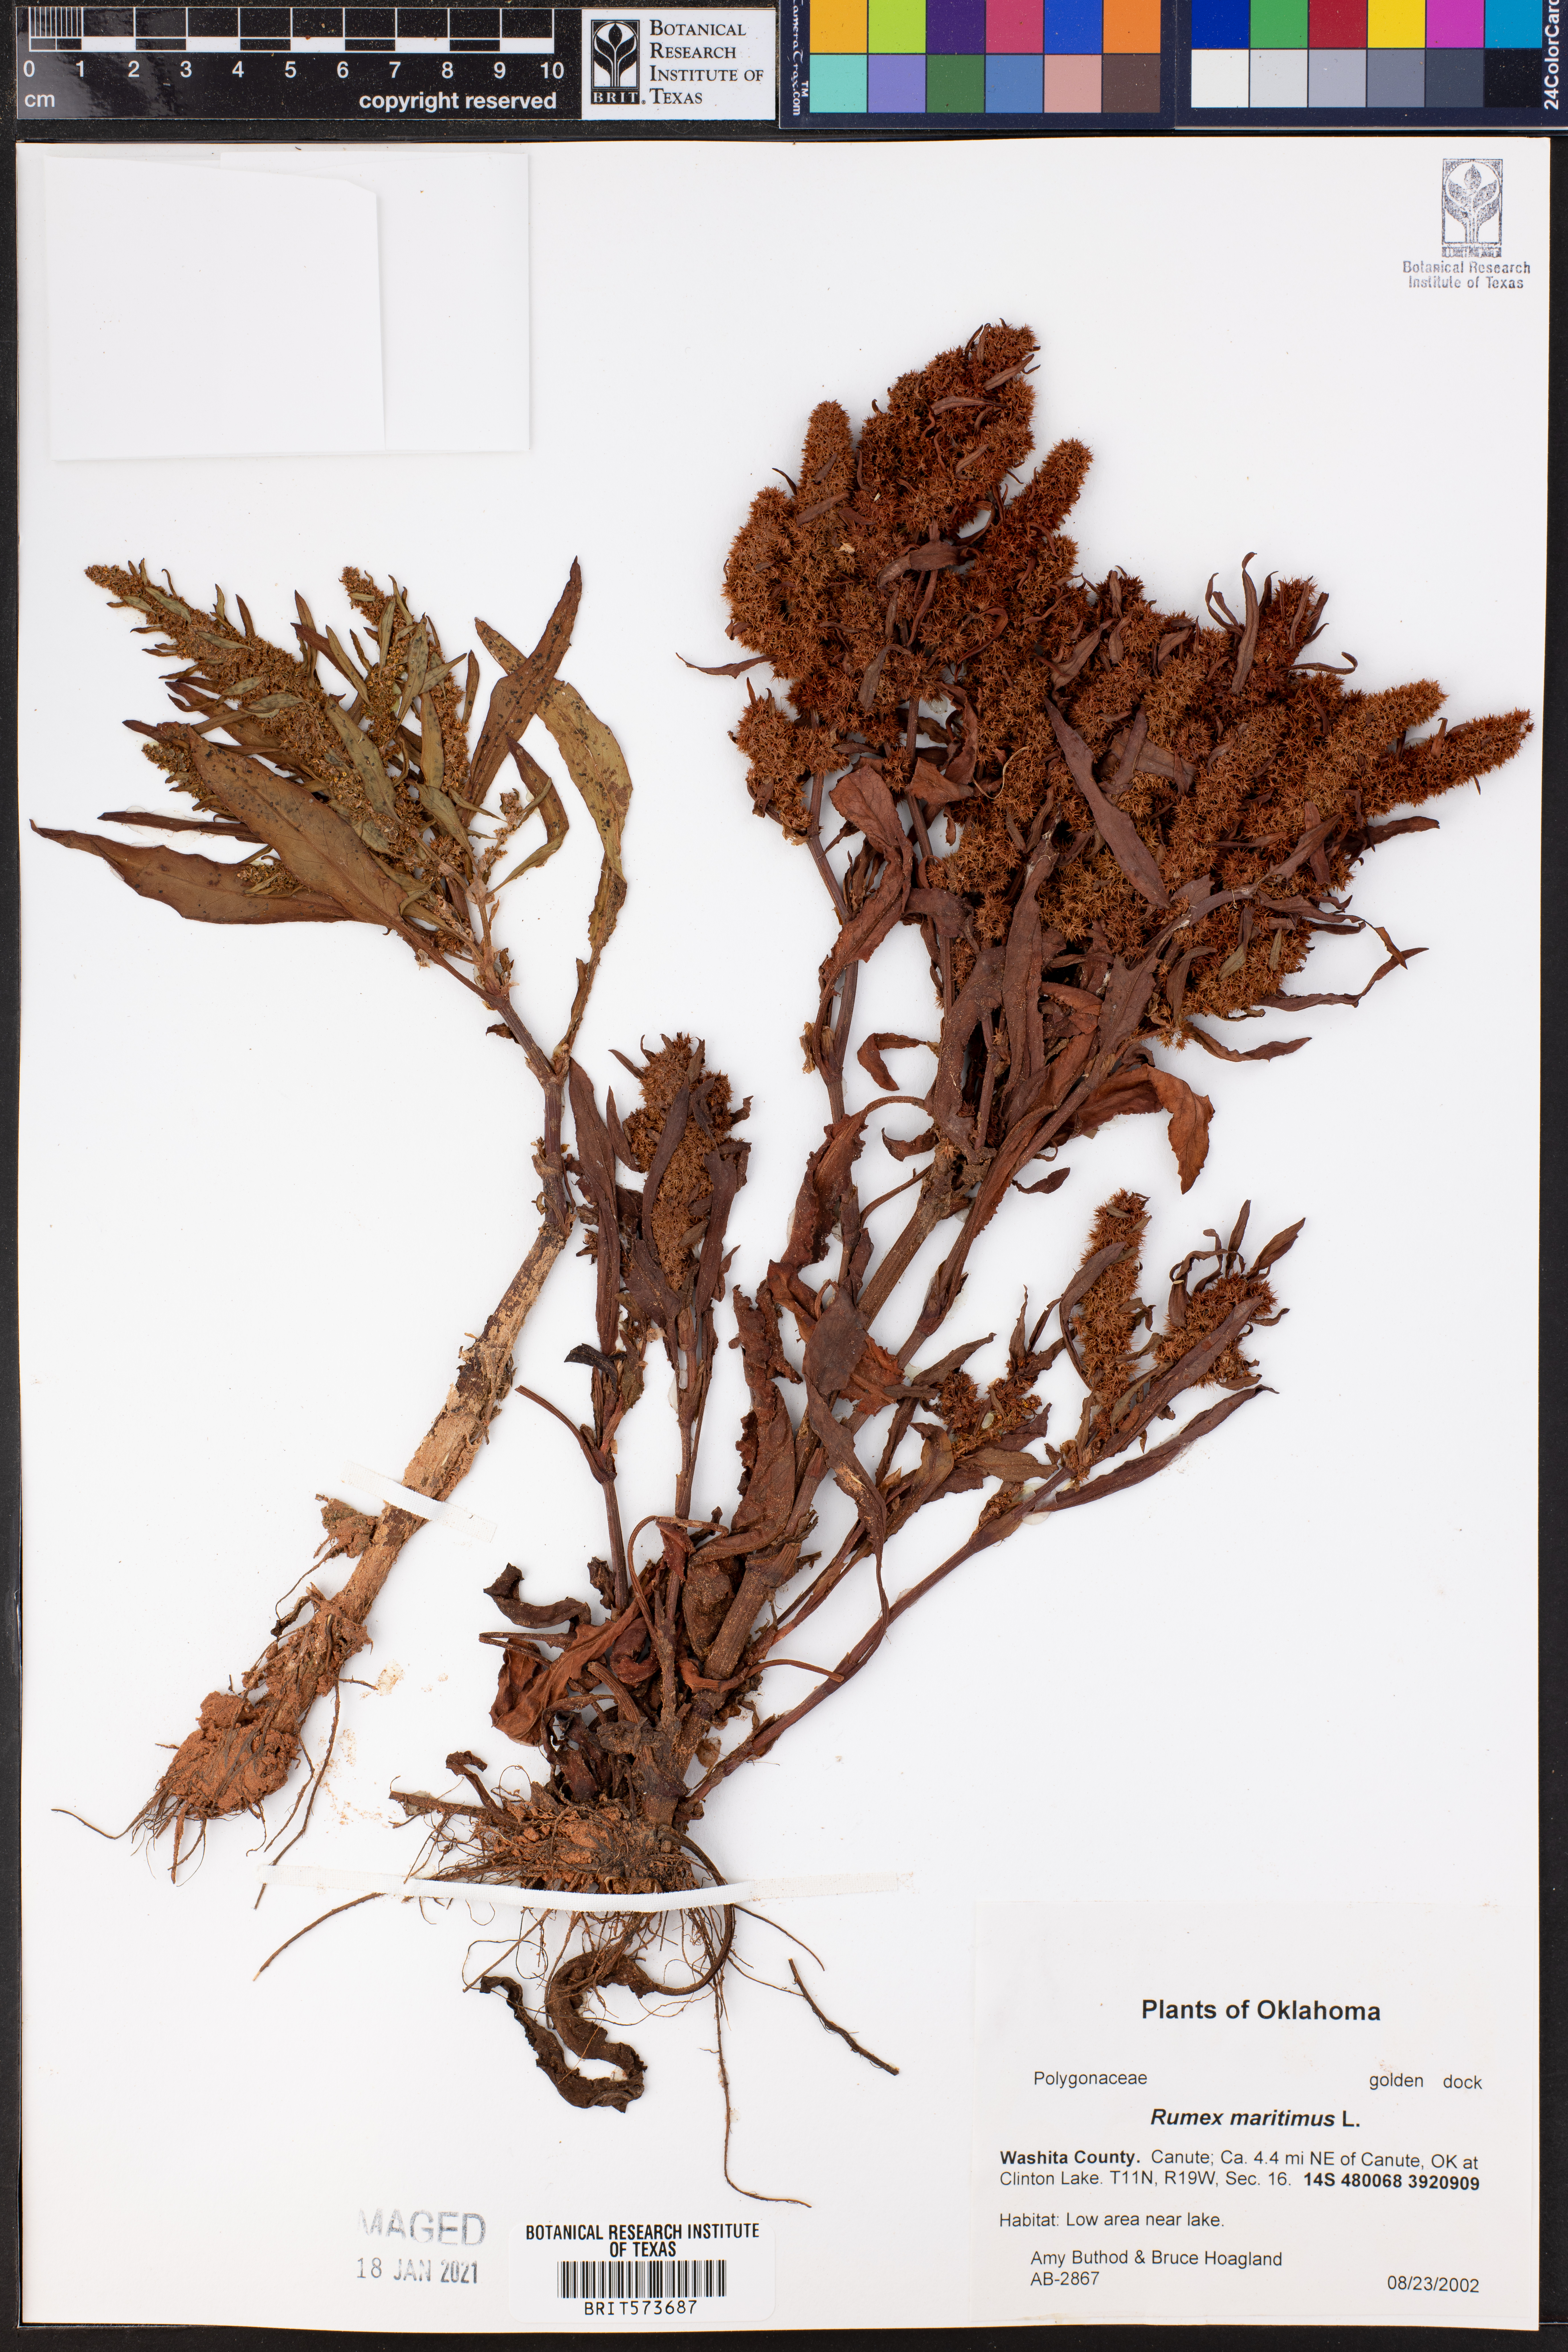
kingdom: Plantae
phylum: Tracheophyta
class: Magnoliopsida
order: Caryophyllales
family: Polygonaceae
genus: Rumex
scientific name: Rumex maritimus
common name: Golden dock
